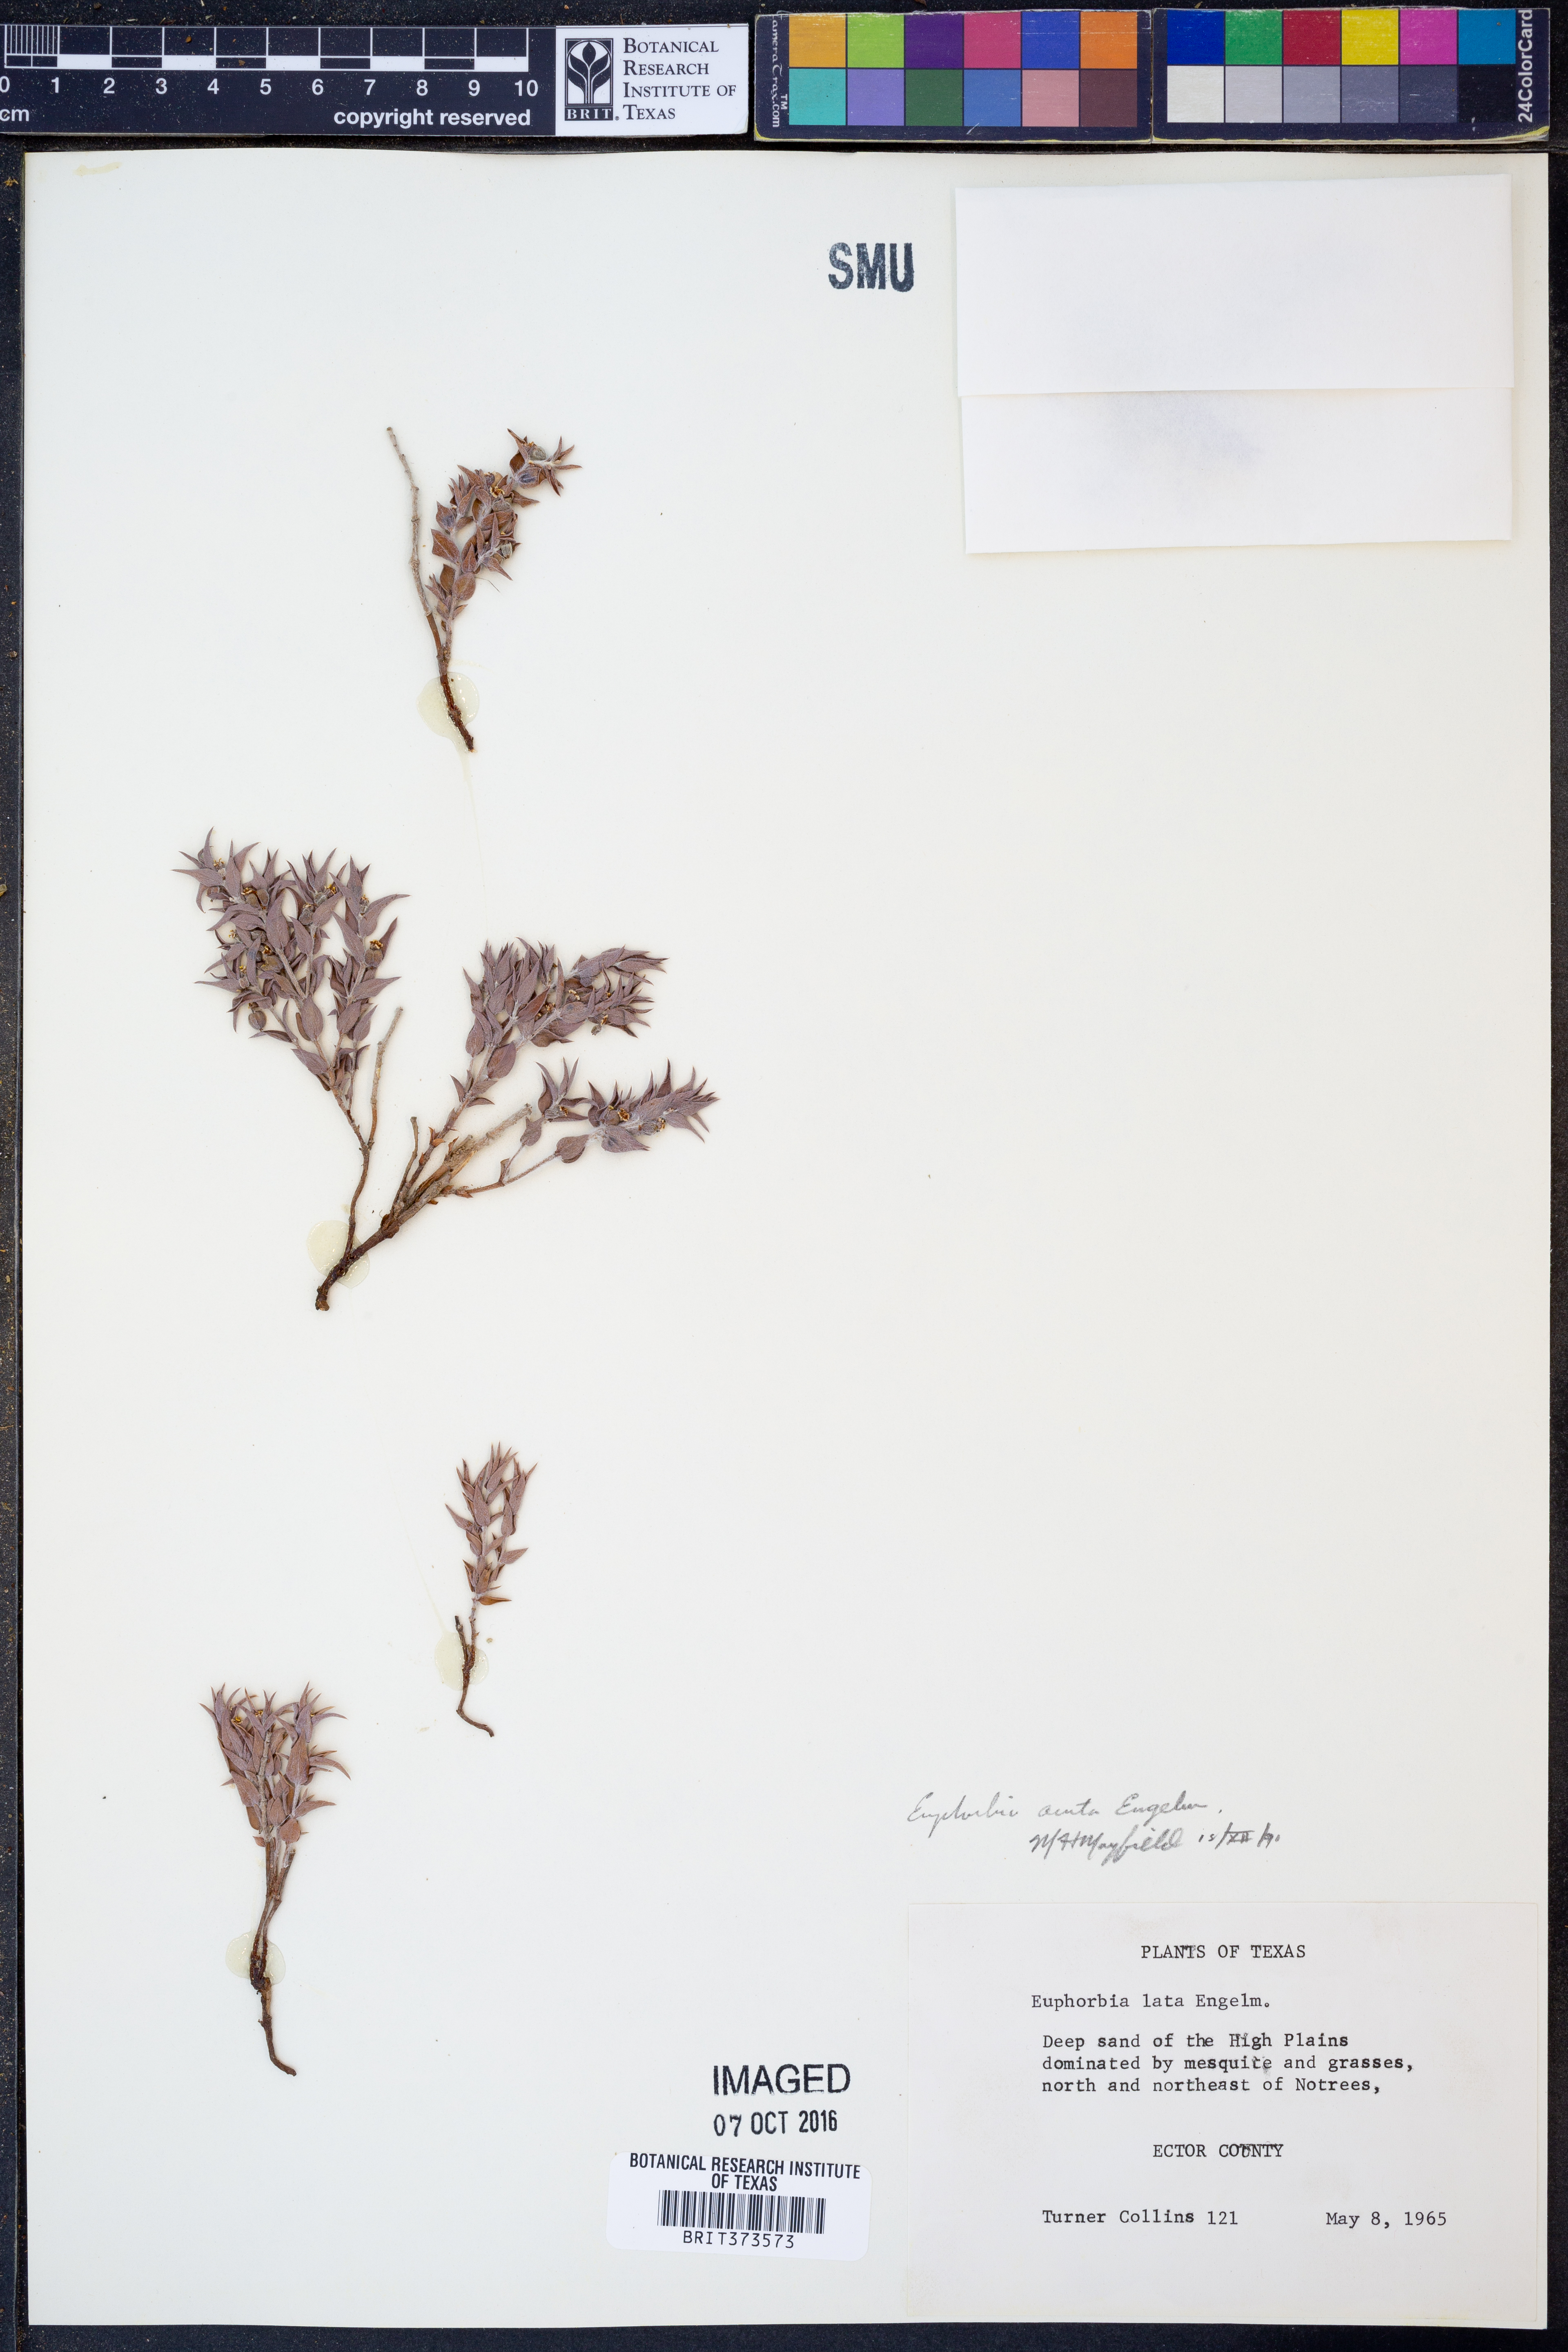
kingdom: Plantae
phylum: Tracheophyta
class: Magnoliopsida
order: Malpighiales
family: Euphorbiaceae
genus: Euphorbia
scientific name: Euphorbia acuta
